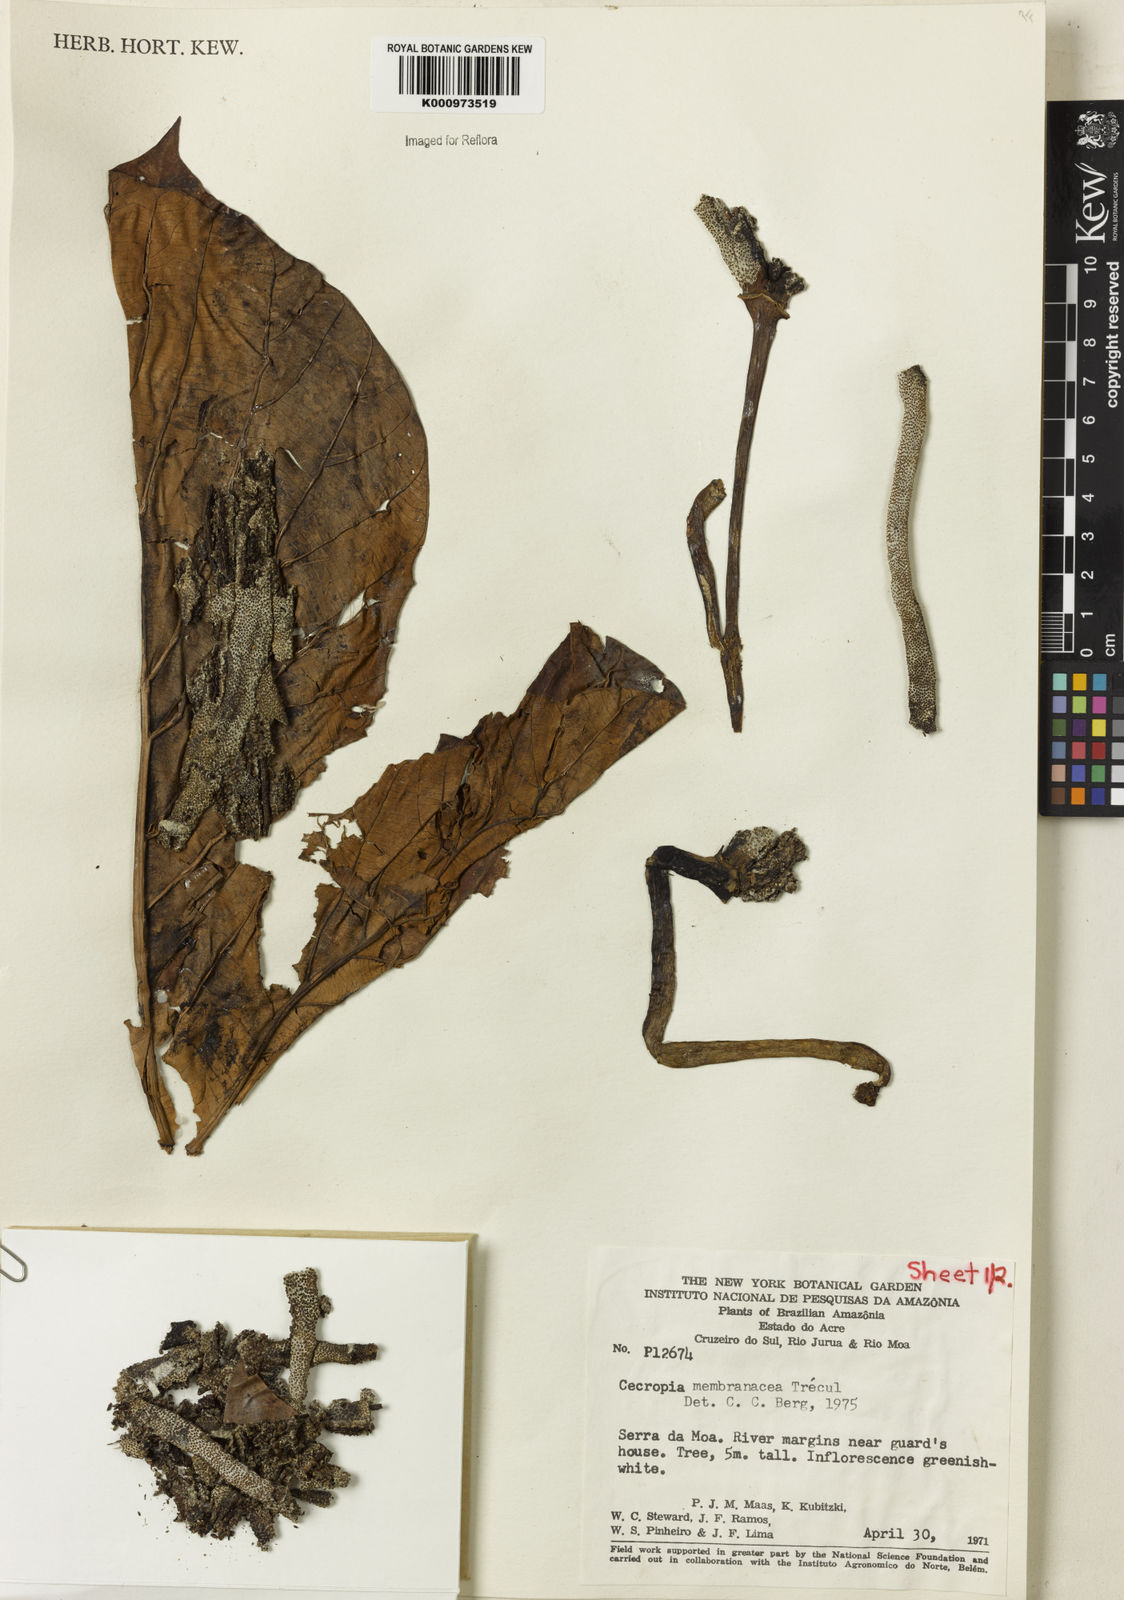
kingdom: Plantae
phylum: Tracheophyta
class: Magnoliopsida
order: Rosales
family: Urticaceae
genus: Cecropia
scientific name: Cecropia
